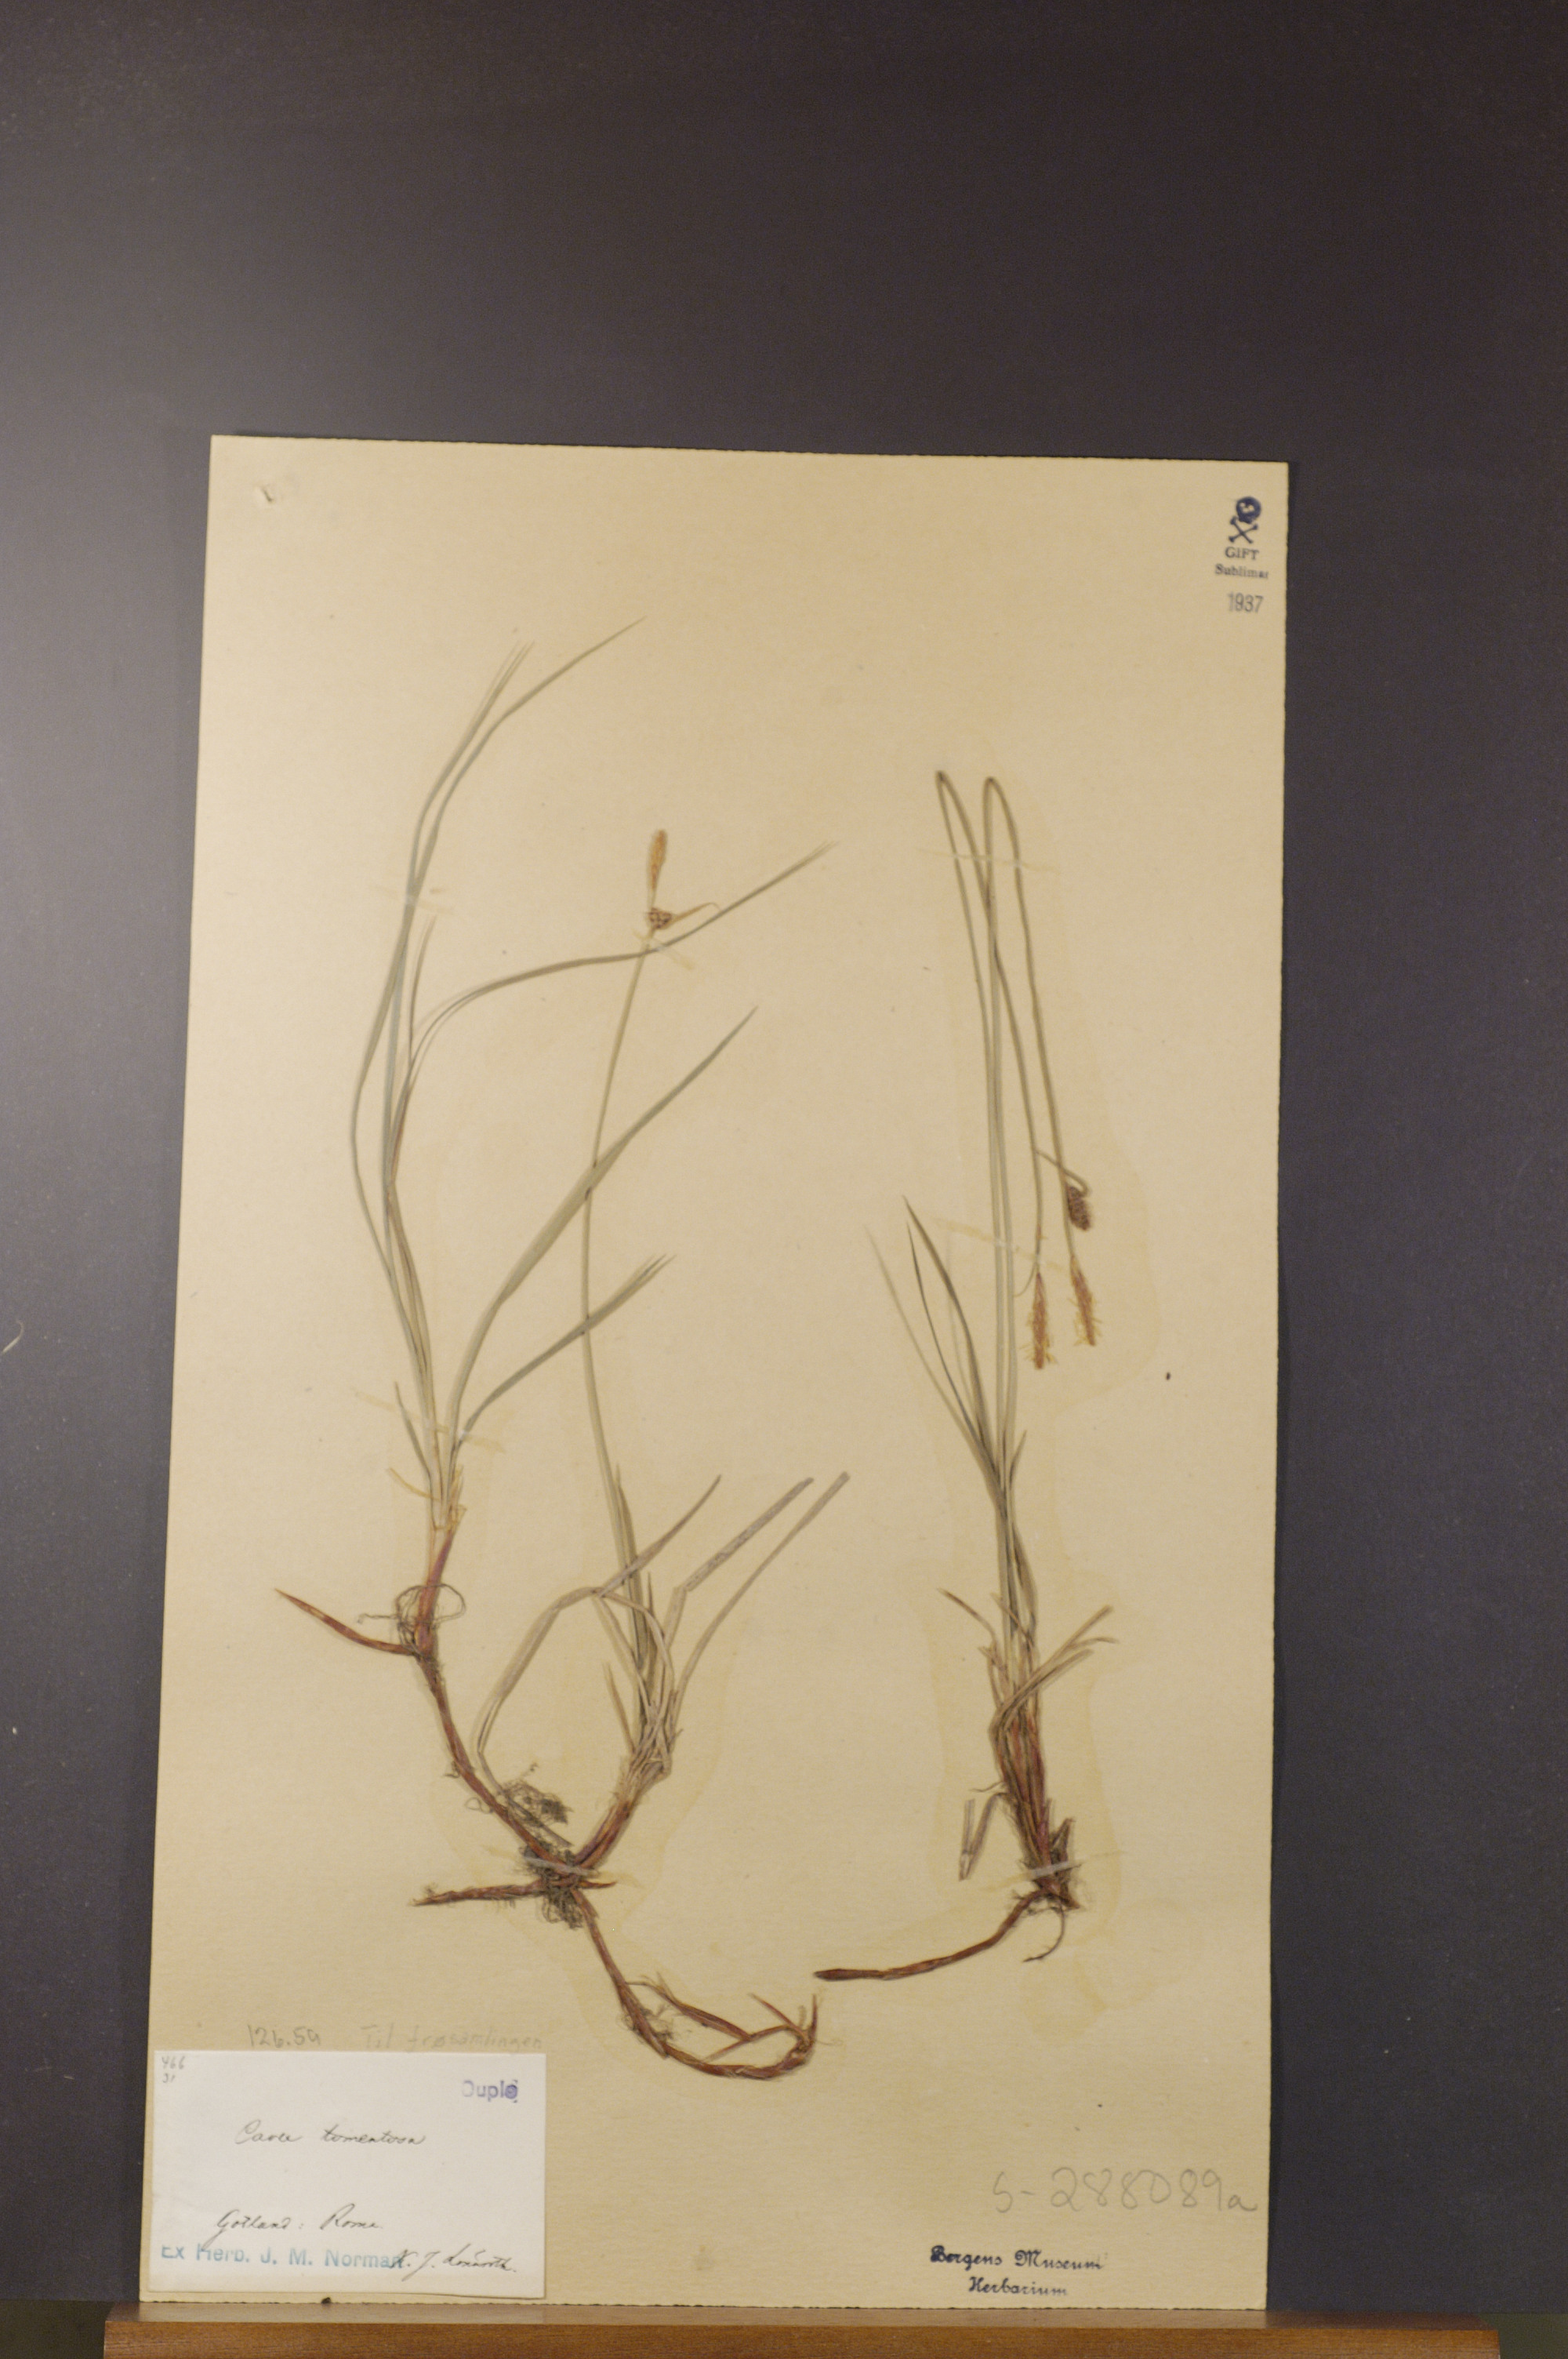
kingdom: Plantae
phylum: Tracheophyta
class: Liliopsida
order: Poales
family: Cyperaceae
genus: Carex
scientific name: Carex montana
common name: Soft-leaved sedge
